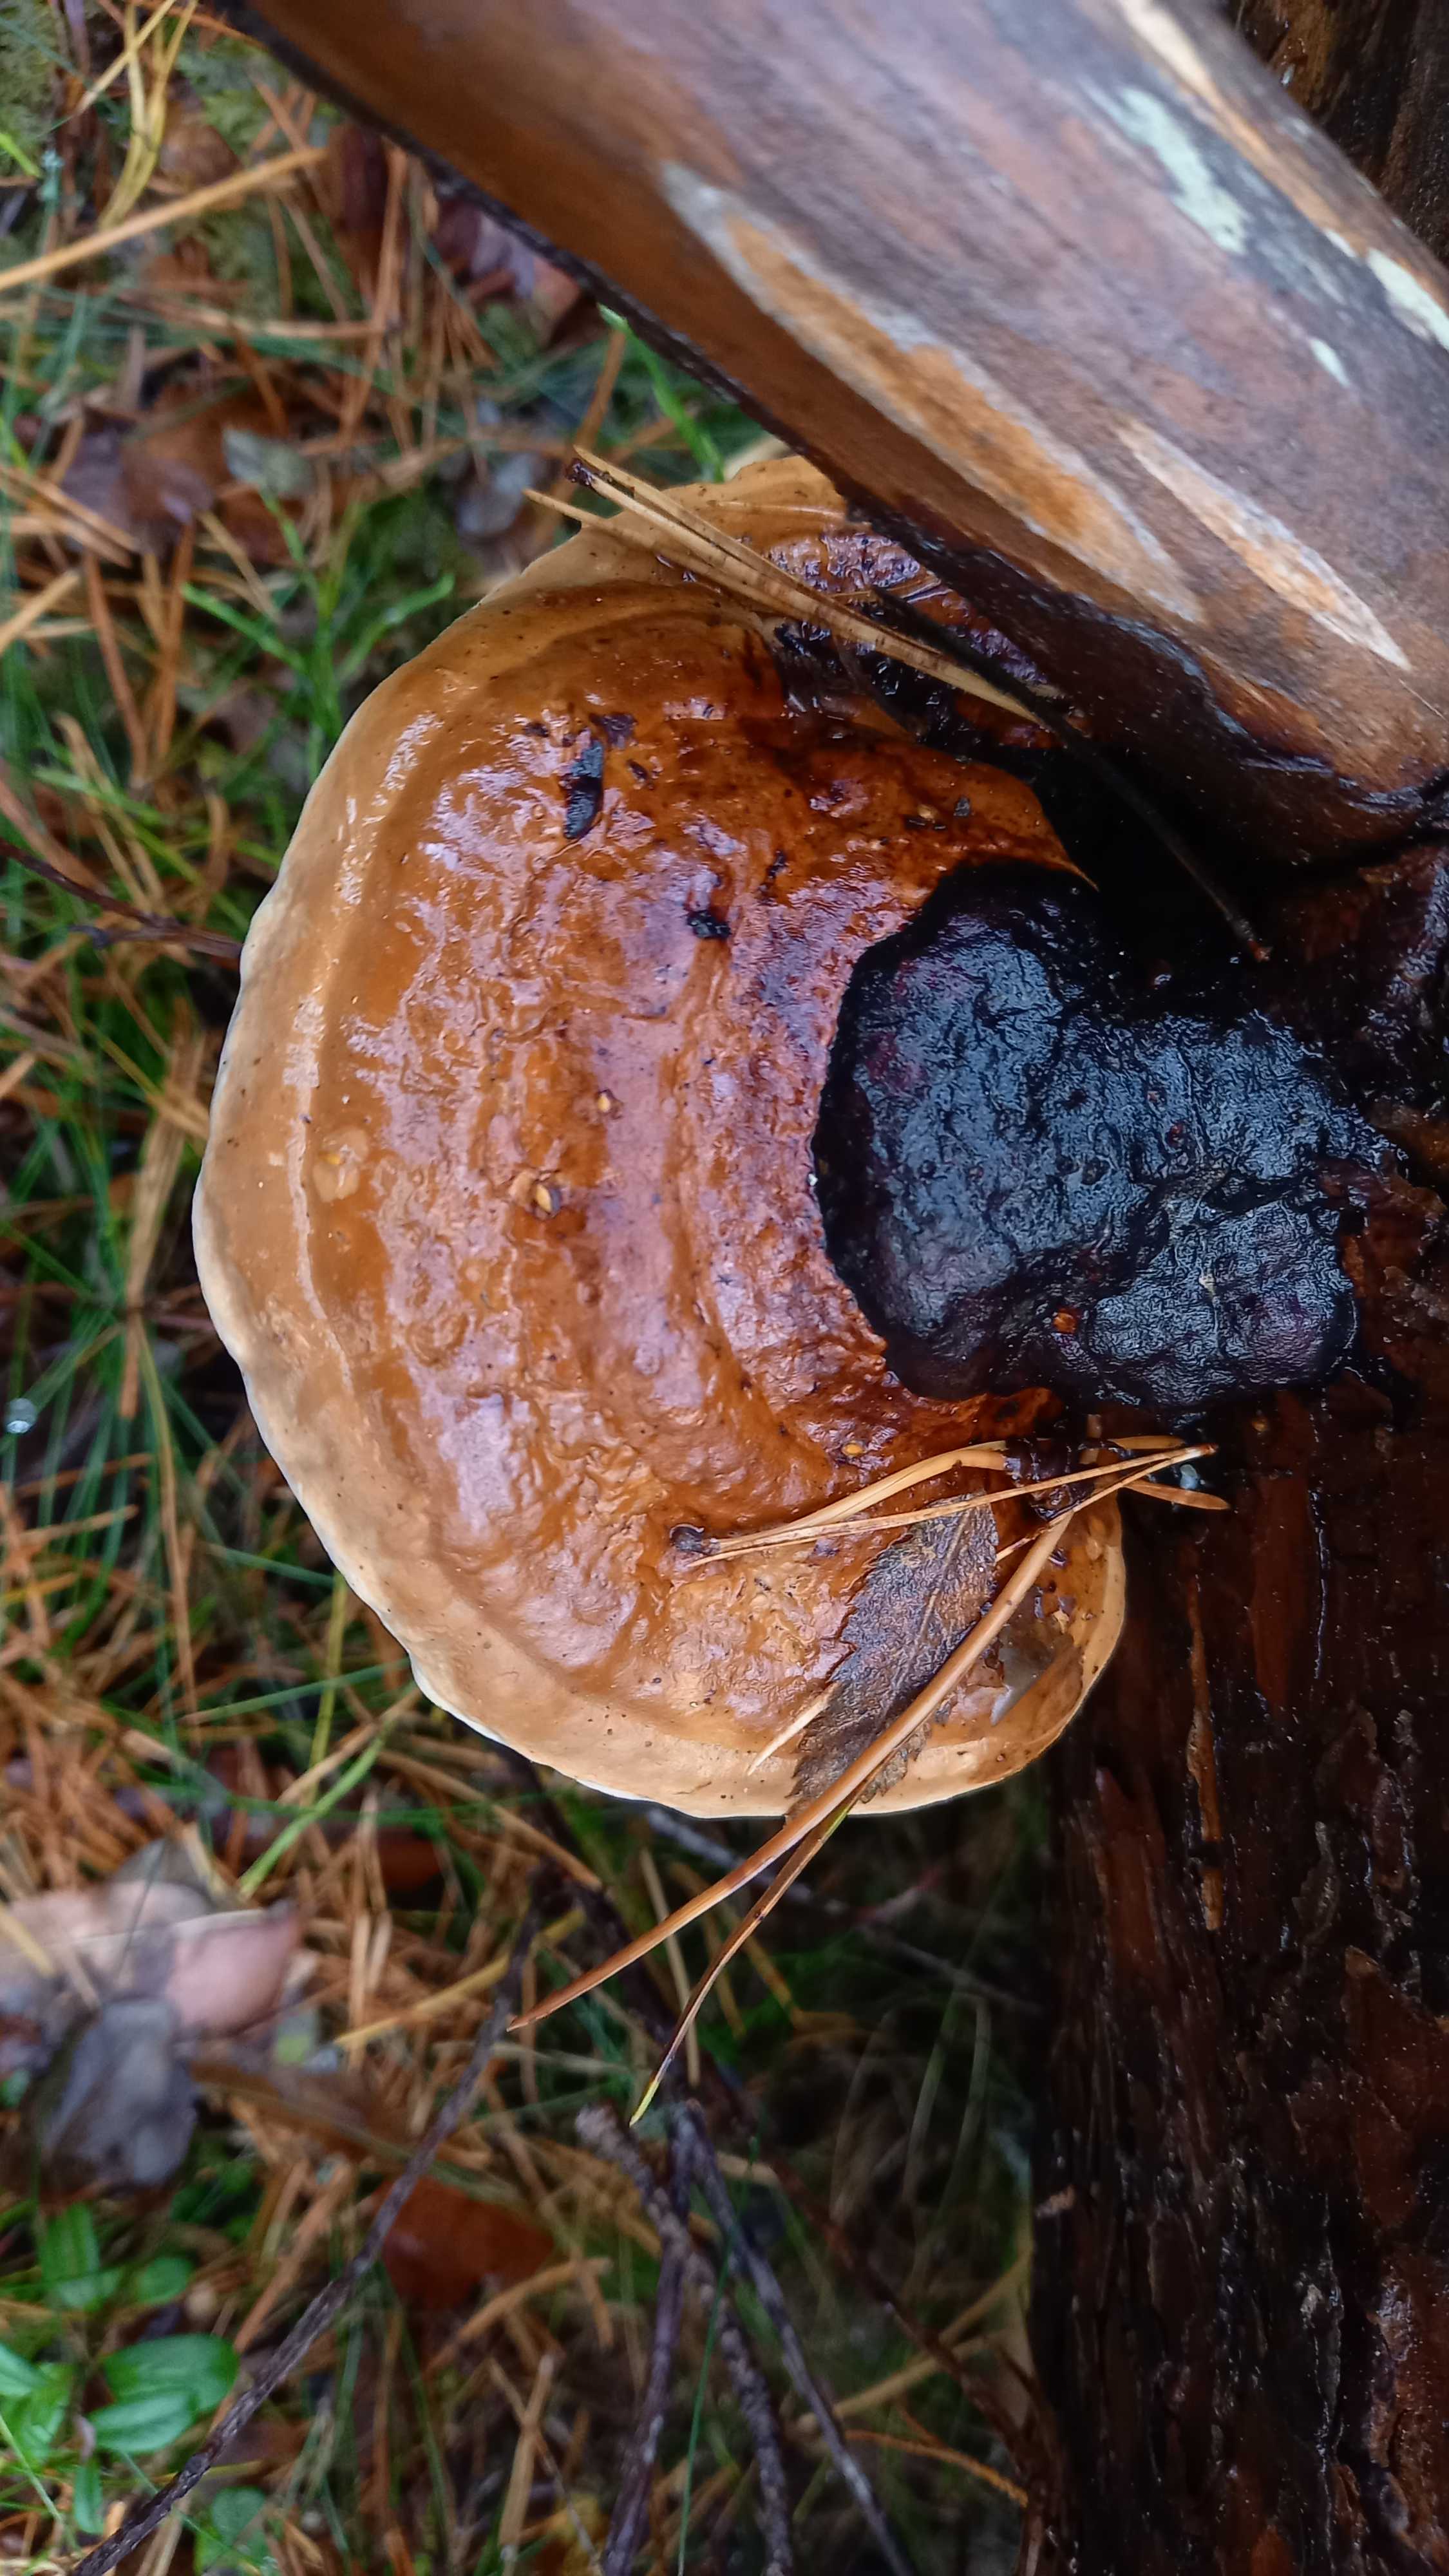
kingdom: Fungi
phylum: Basidiomycota
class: Agaricomycetes
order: Polyporales
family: Fomitopsidaceae
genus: Fomitopsis
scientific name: Fomitopsis pinicola
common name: randbæltet hovporesvamp
